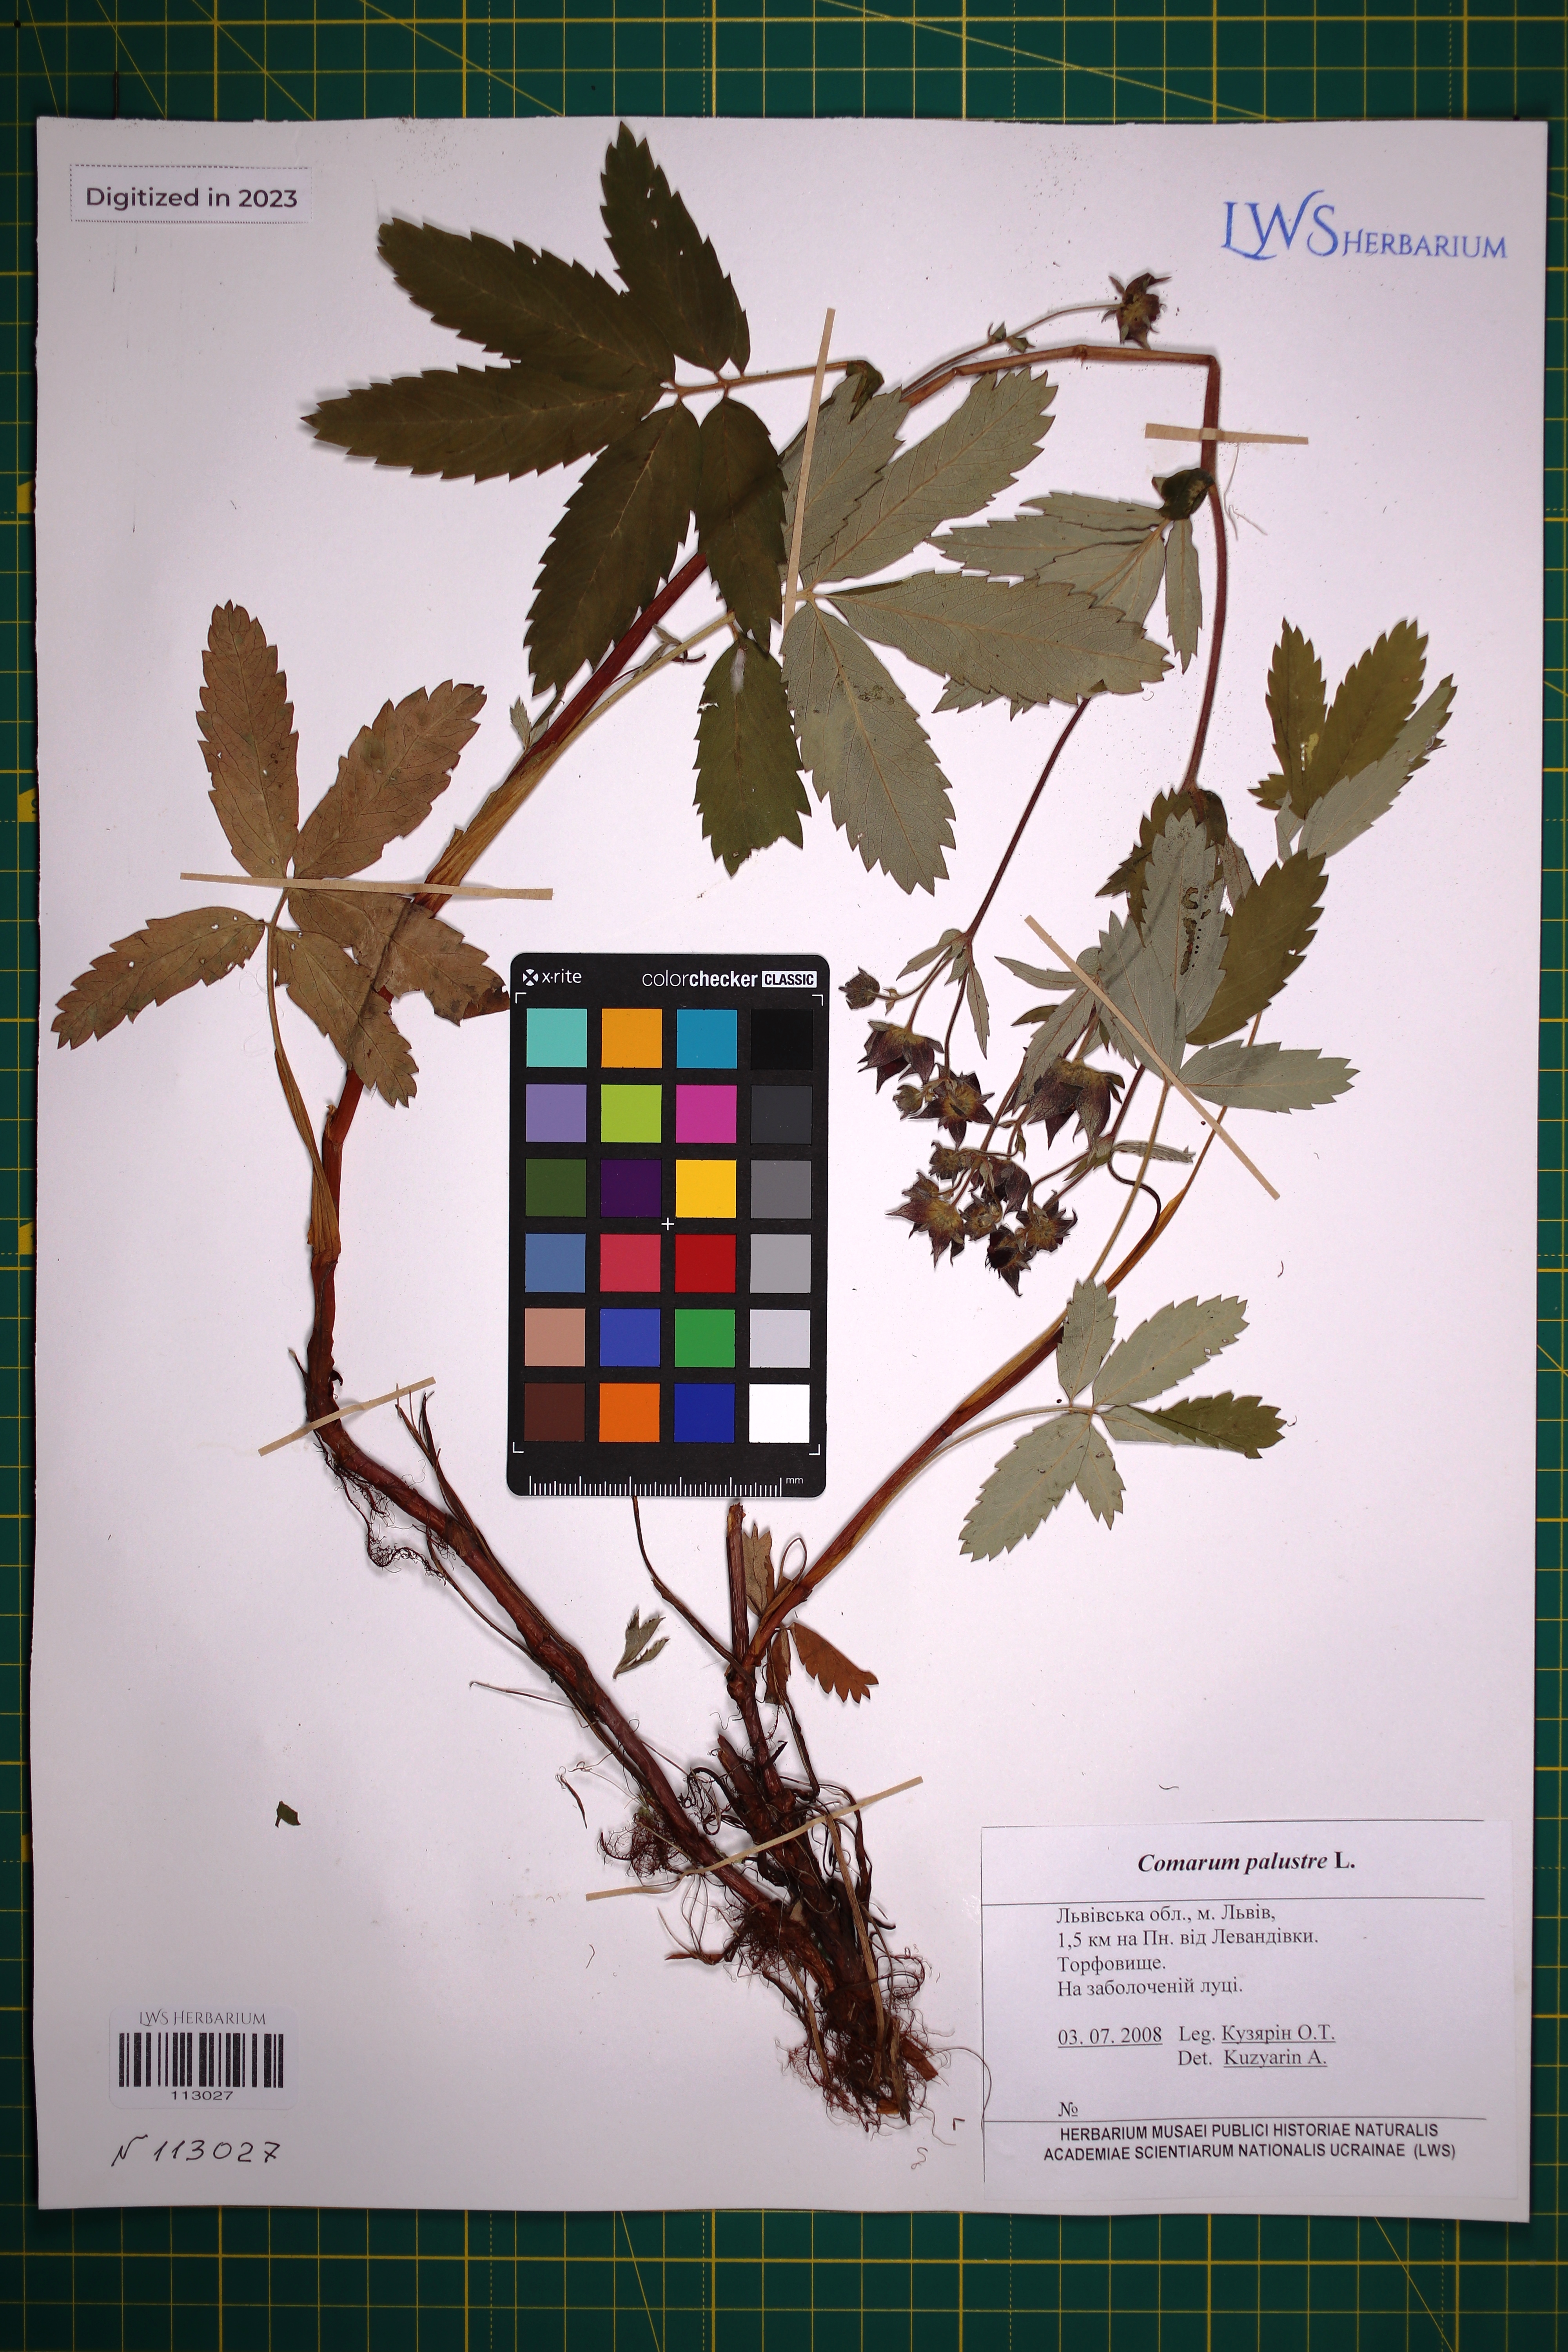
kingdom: Plantae
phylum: Tracheophyta
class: Magnoliopsida
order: Rosales
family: Rosaceae
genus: Comarum
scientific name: Comarum palustre
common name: Marsh cinquefoil
